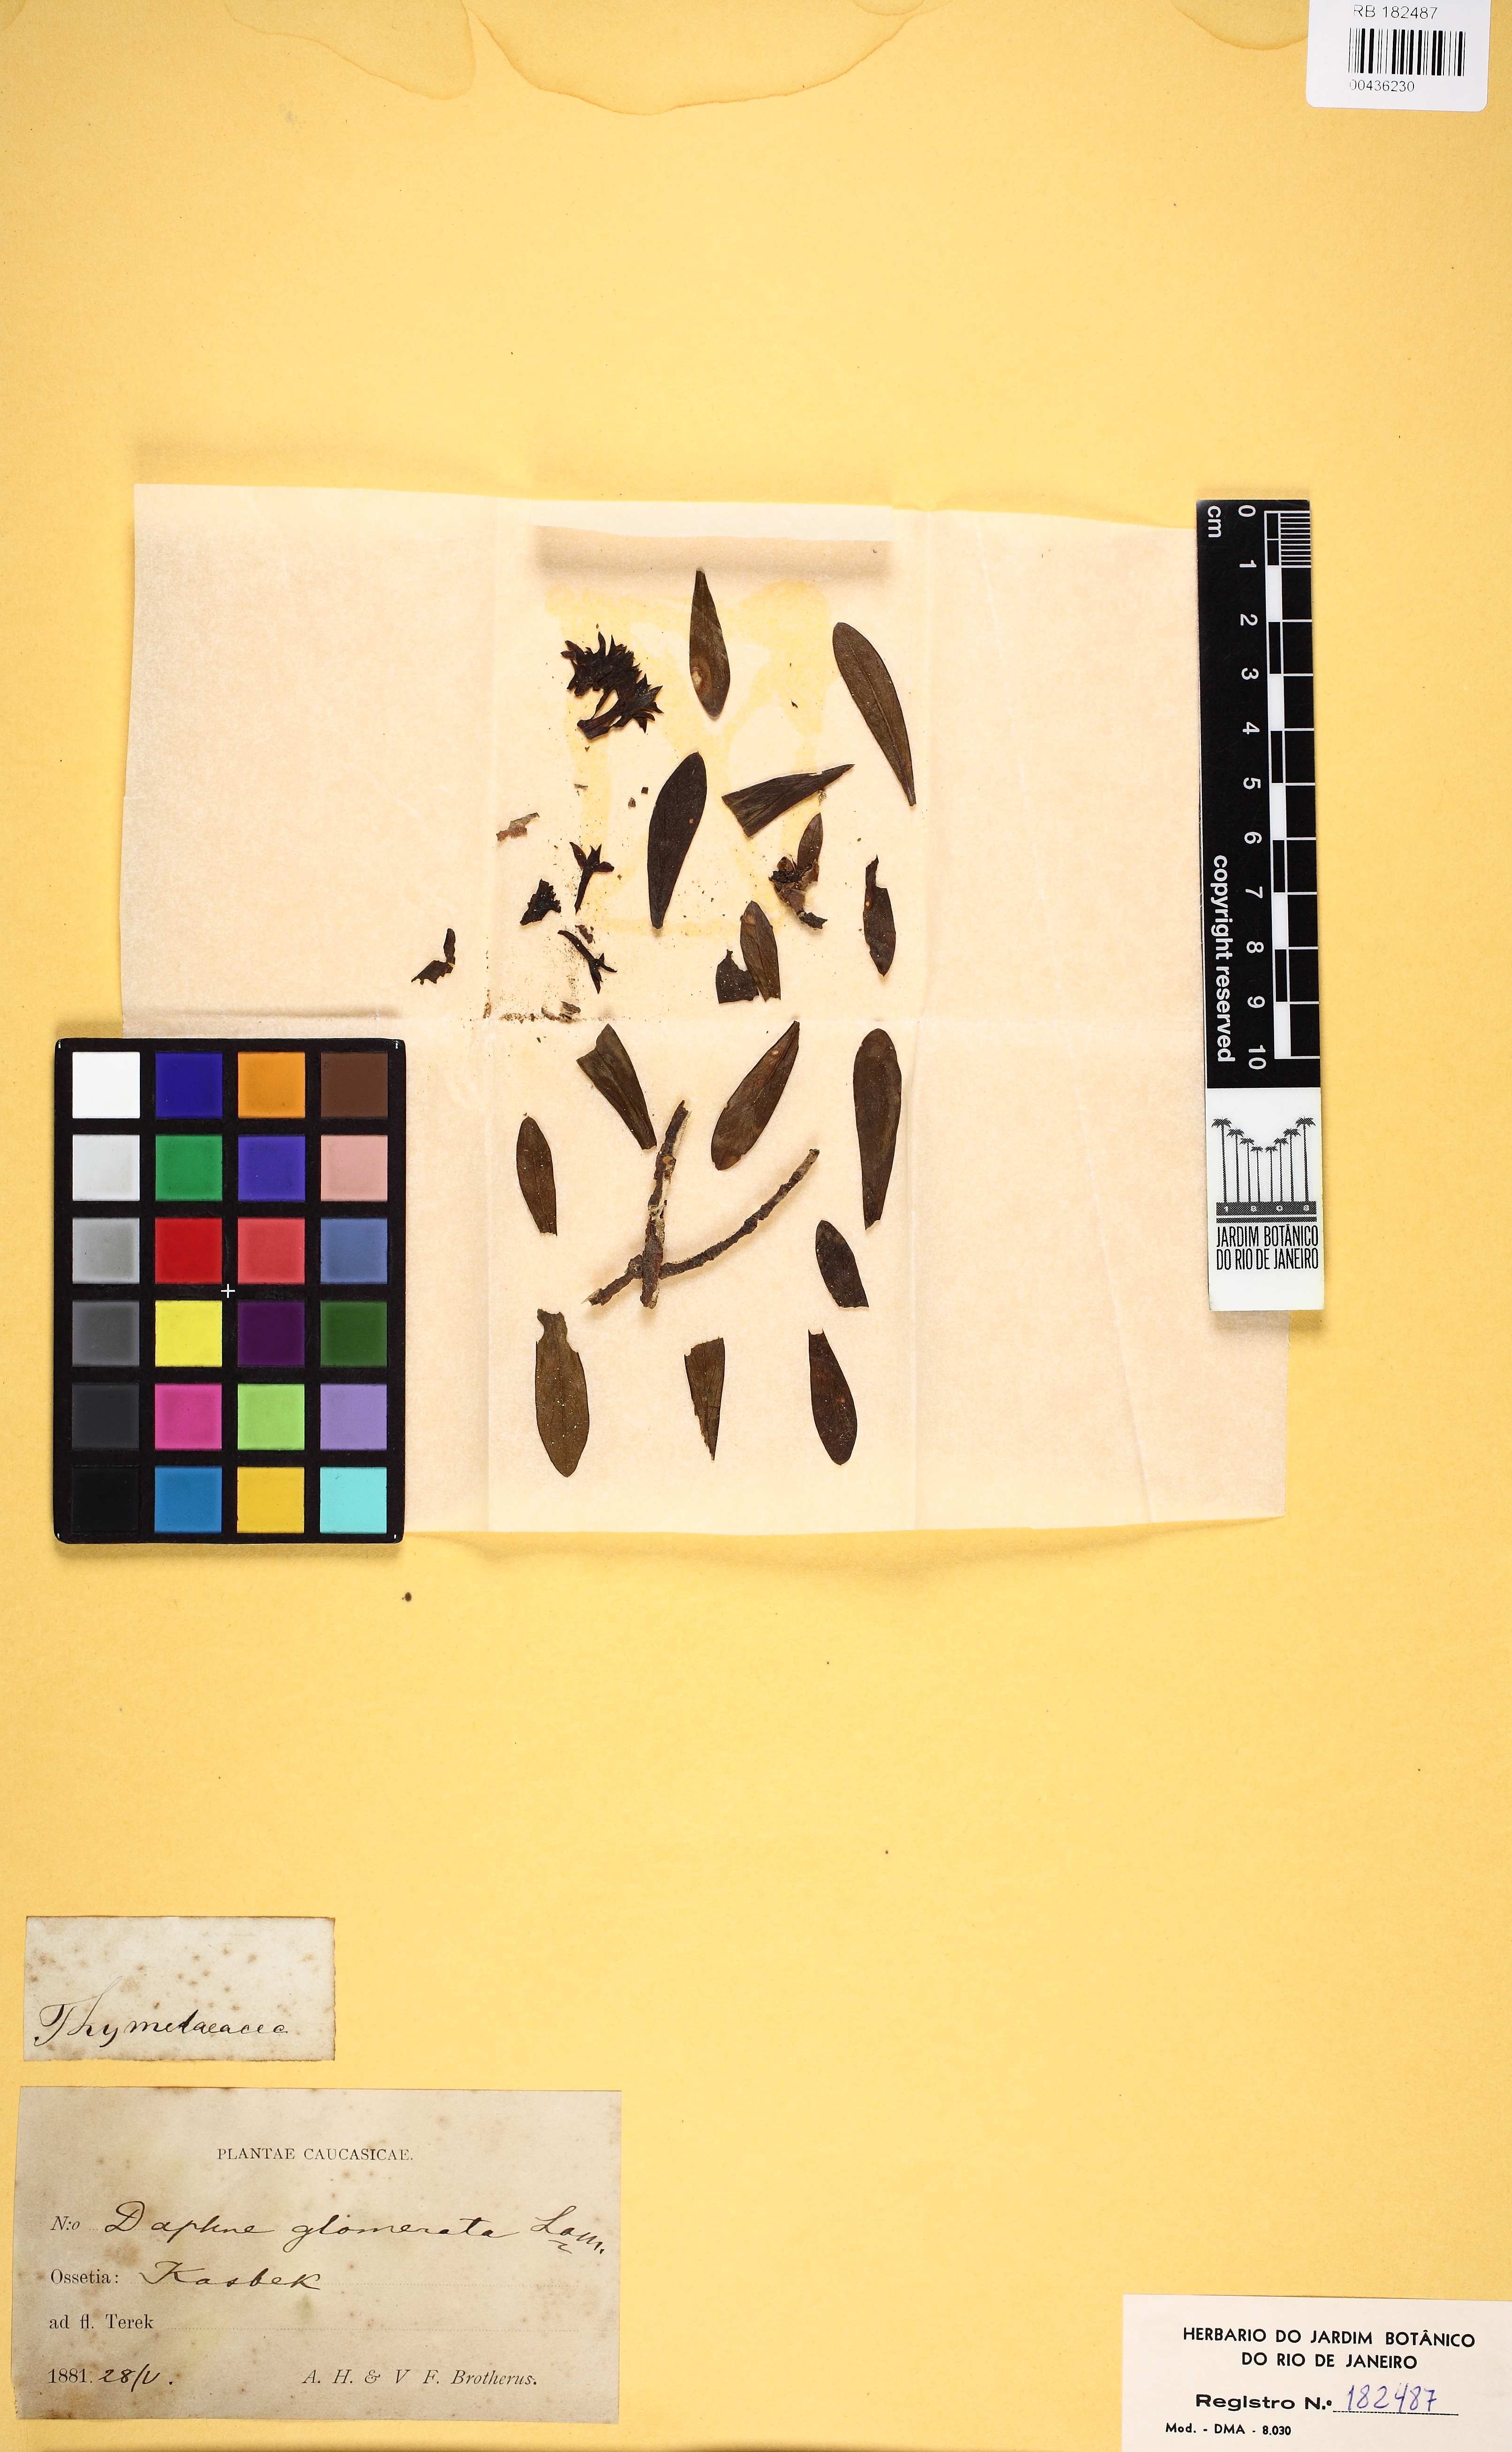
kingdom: Plantae
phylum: Tracheophyta
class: Magnoliopsida
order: Malvales
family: Thymelaeaceae
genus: Daphne
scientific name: Daphne glomerata
